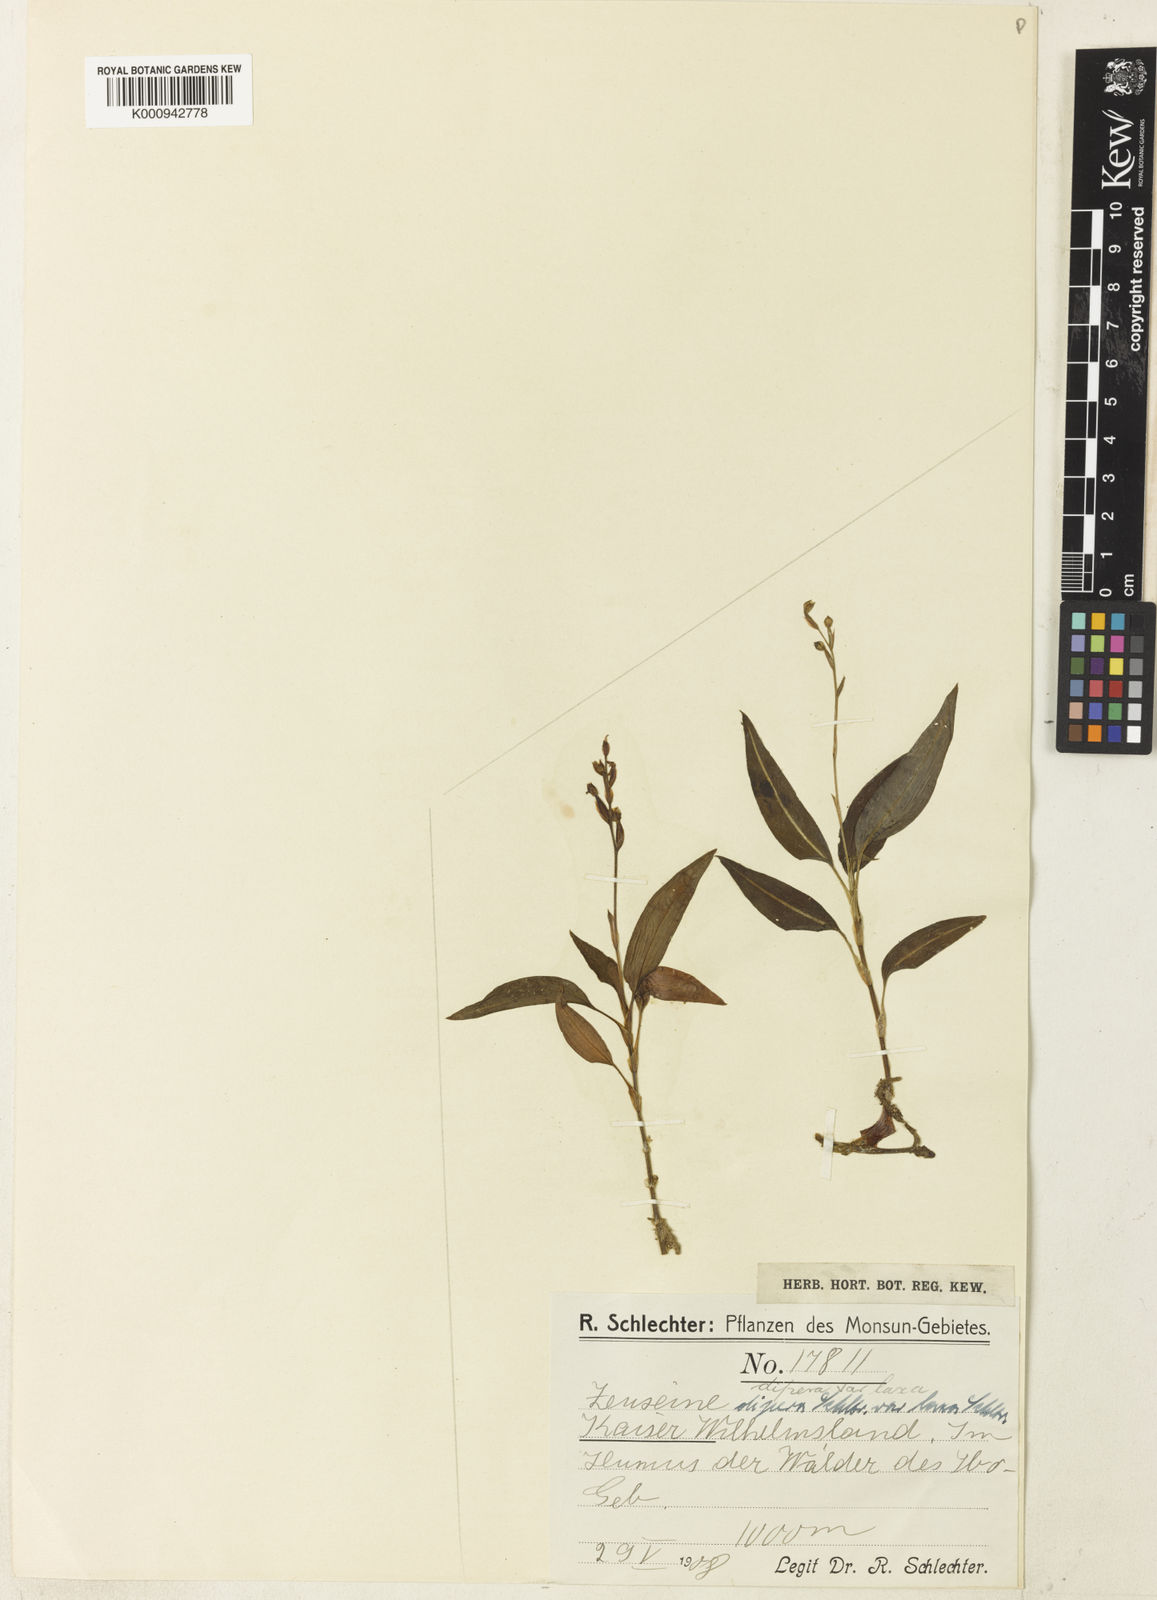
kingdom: Plantae
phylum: Tracheophyta
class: Liliopsida
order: Asparagales
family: Orchidaceae
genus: Rhomboda
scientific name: Rhomboda
